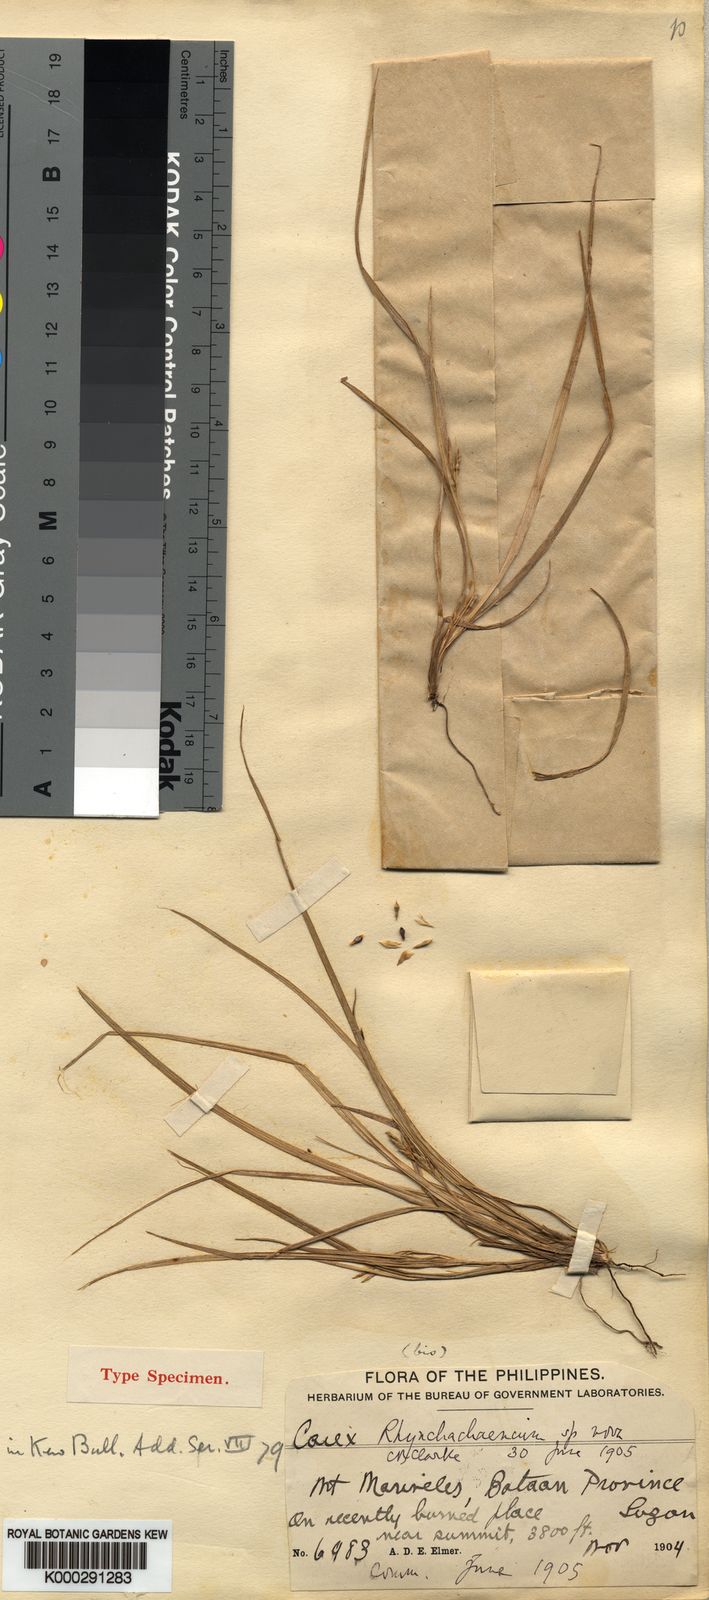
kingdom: Plantae
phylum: Tracheophyta
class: Liliopsida
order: Poales
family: Cyperaceae
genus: Carex
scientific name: Carex rhynchachaenium
